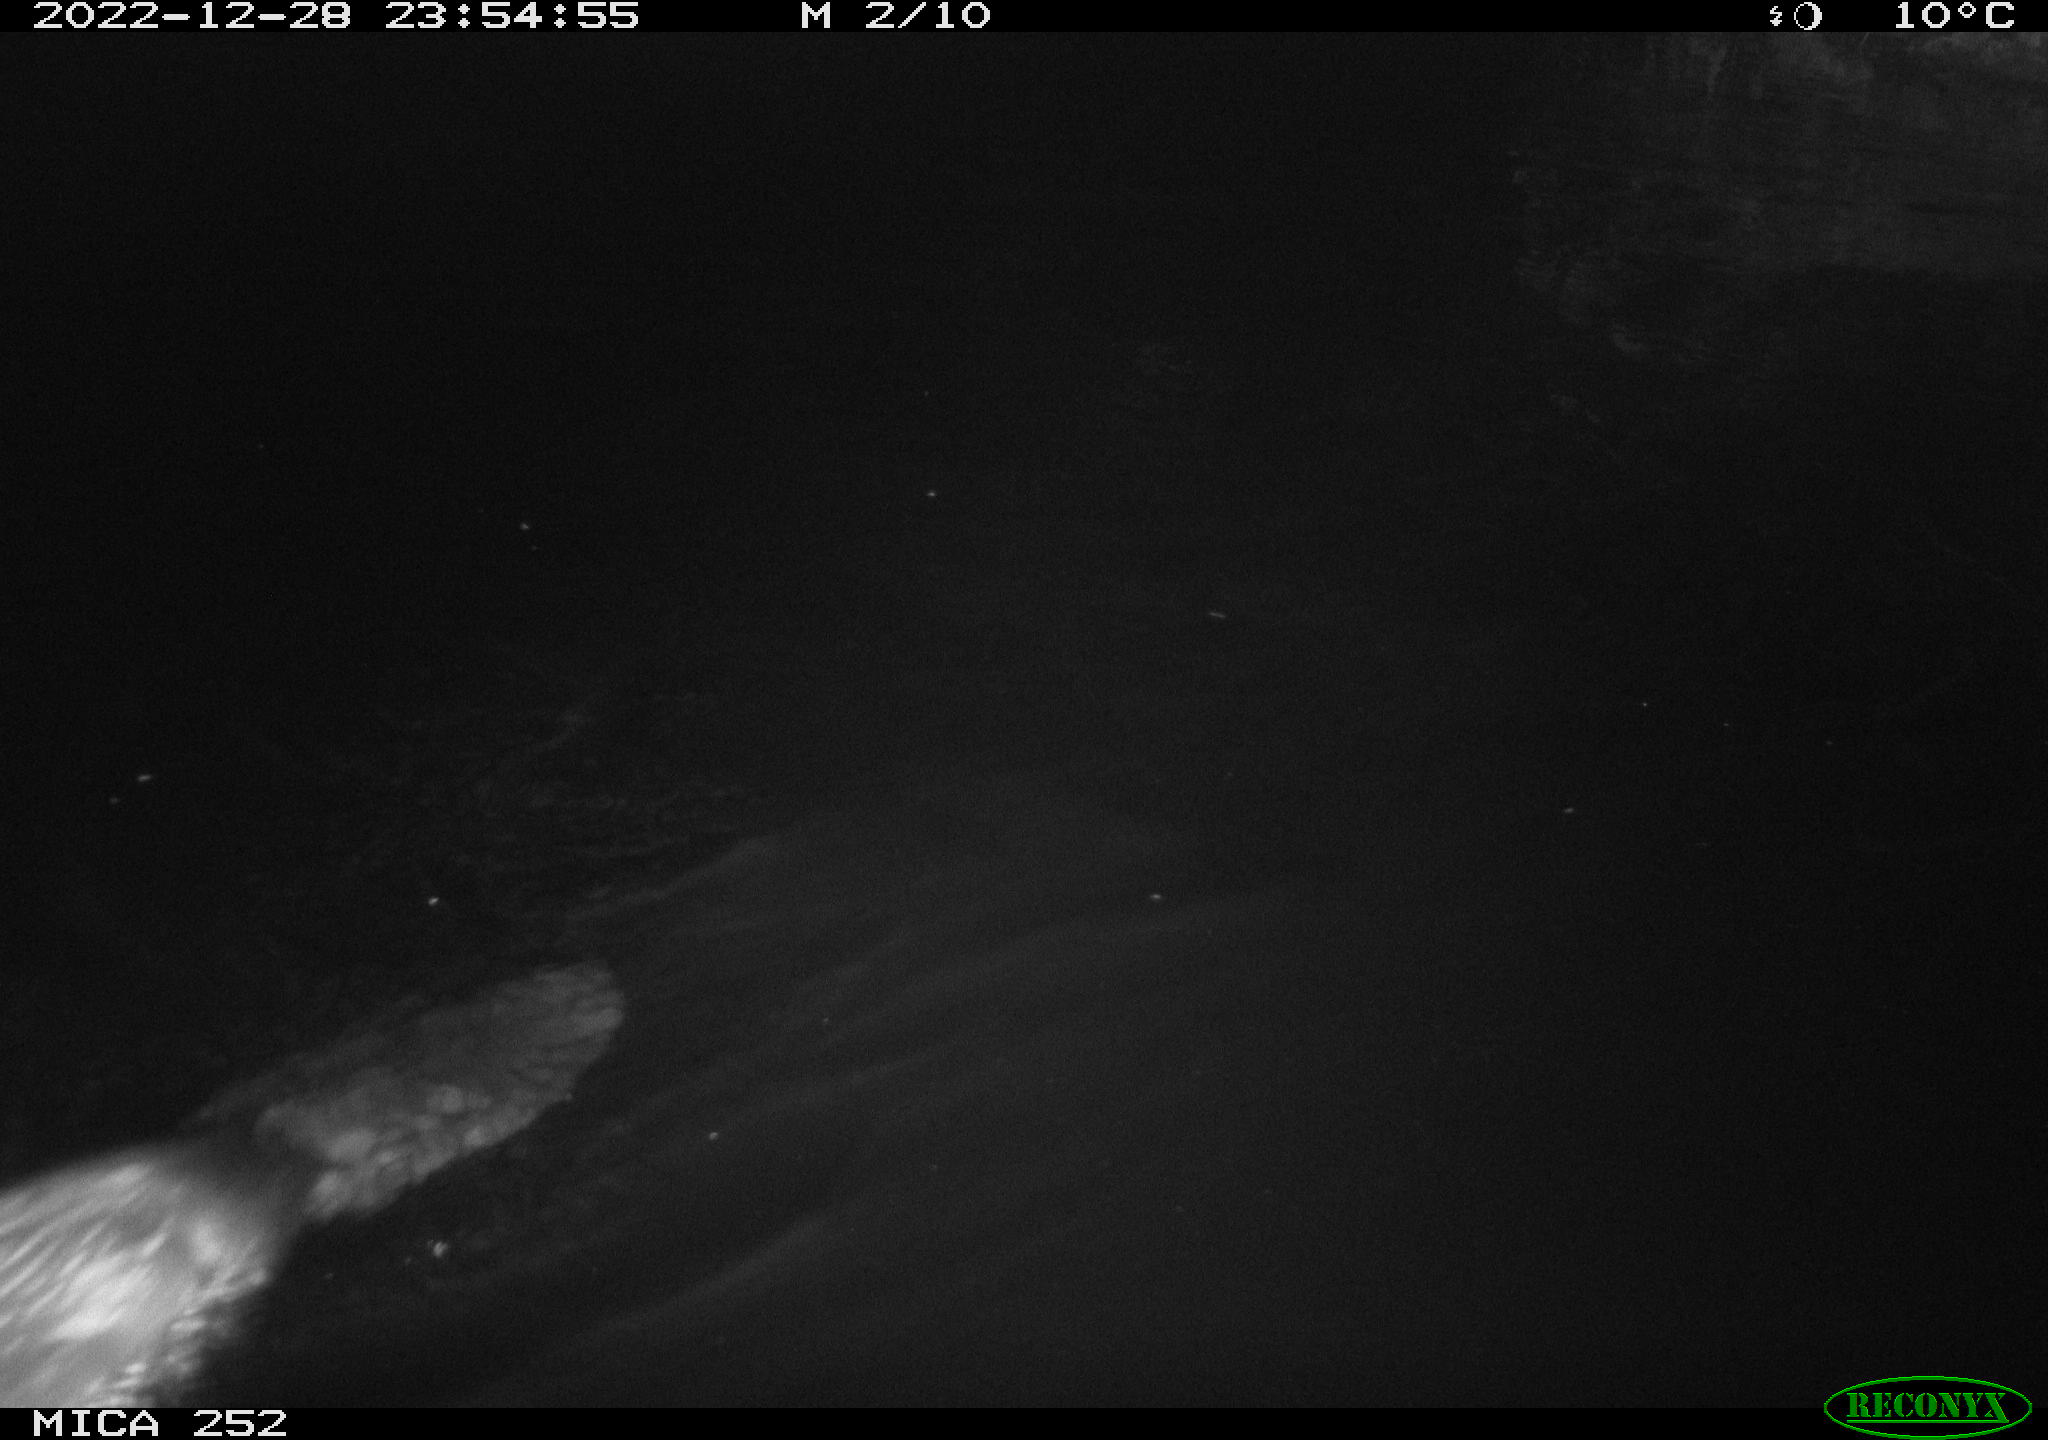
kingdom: Animalia
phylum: Chordata
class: Mammalia
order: Rodentia
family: Castoridae
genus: Castor
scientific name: Castor fiber
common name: Eurasian beaver
